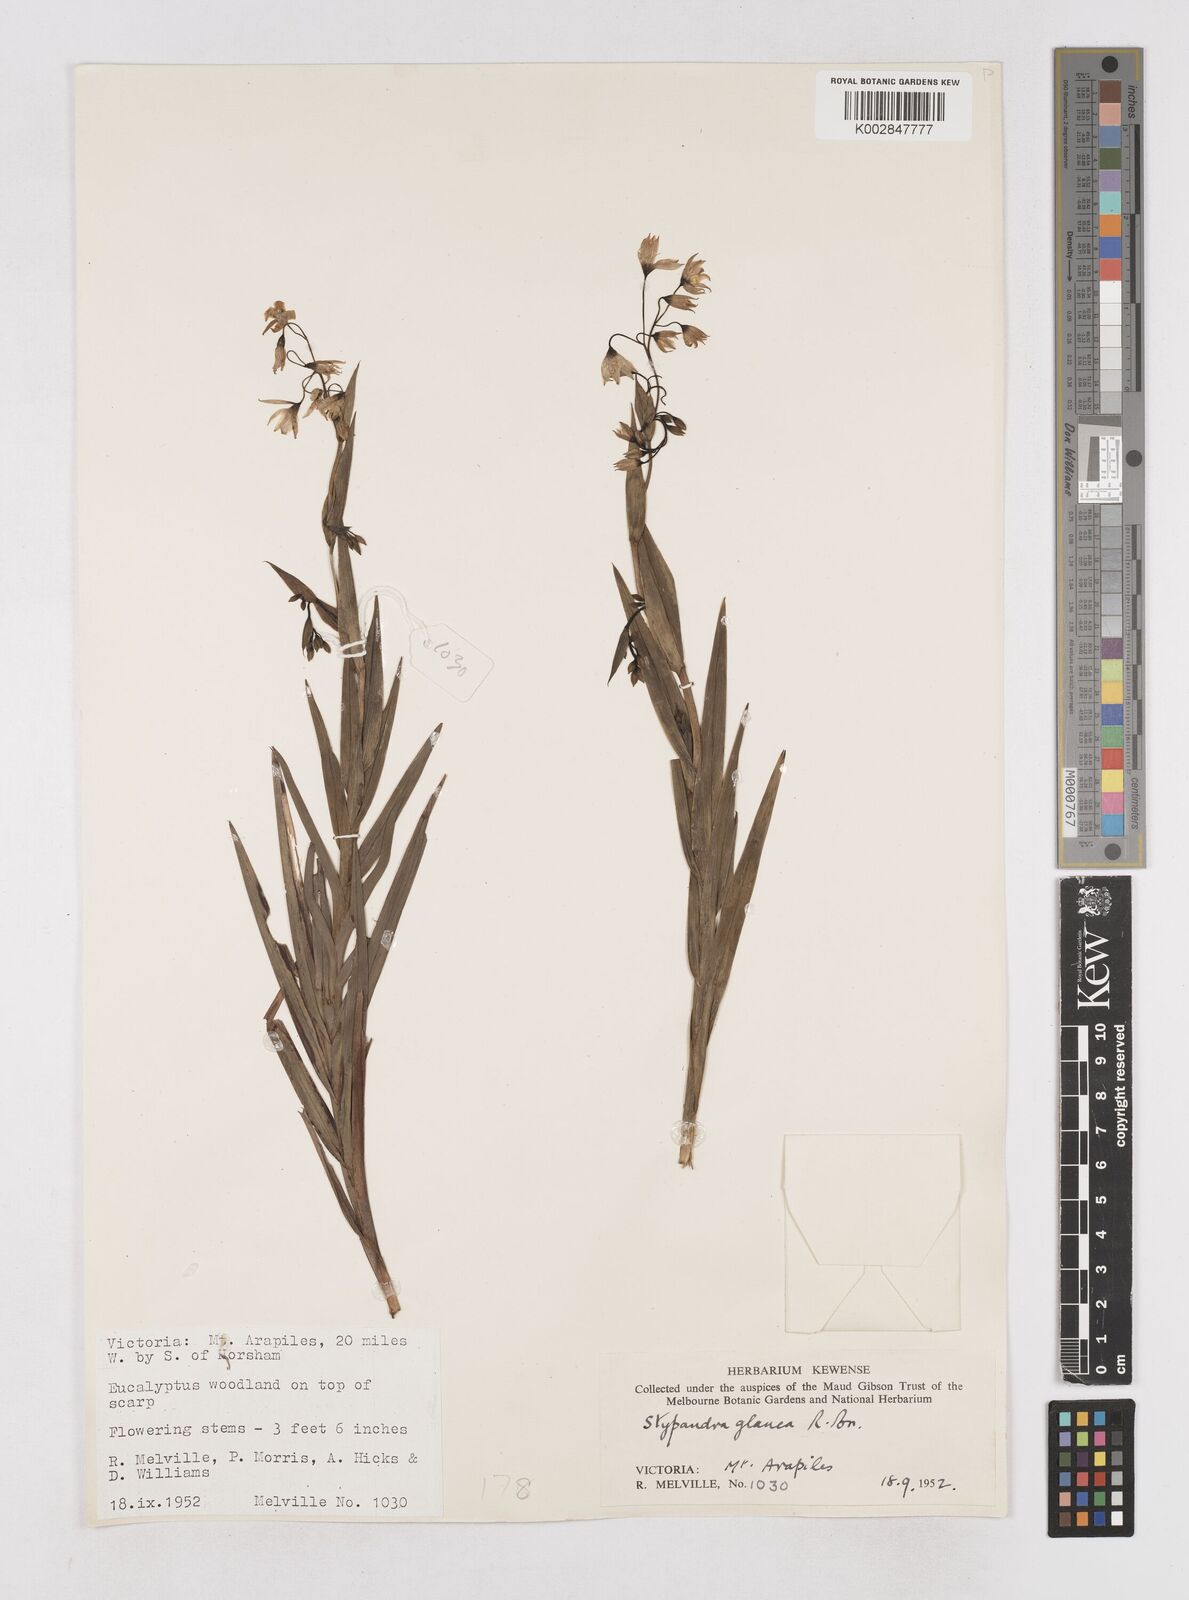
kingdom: Plantae
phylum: Tracheophyta
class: Liliopsida
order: Asparagales
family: Asphodelaceae
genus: Stypandra
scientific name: Stypandra glauca
